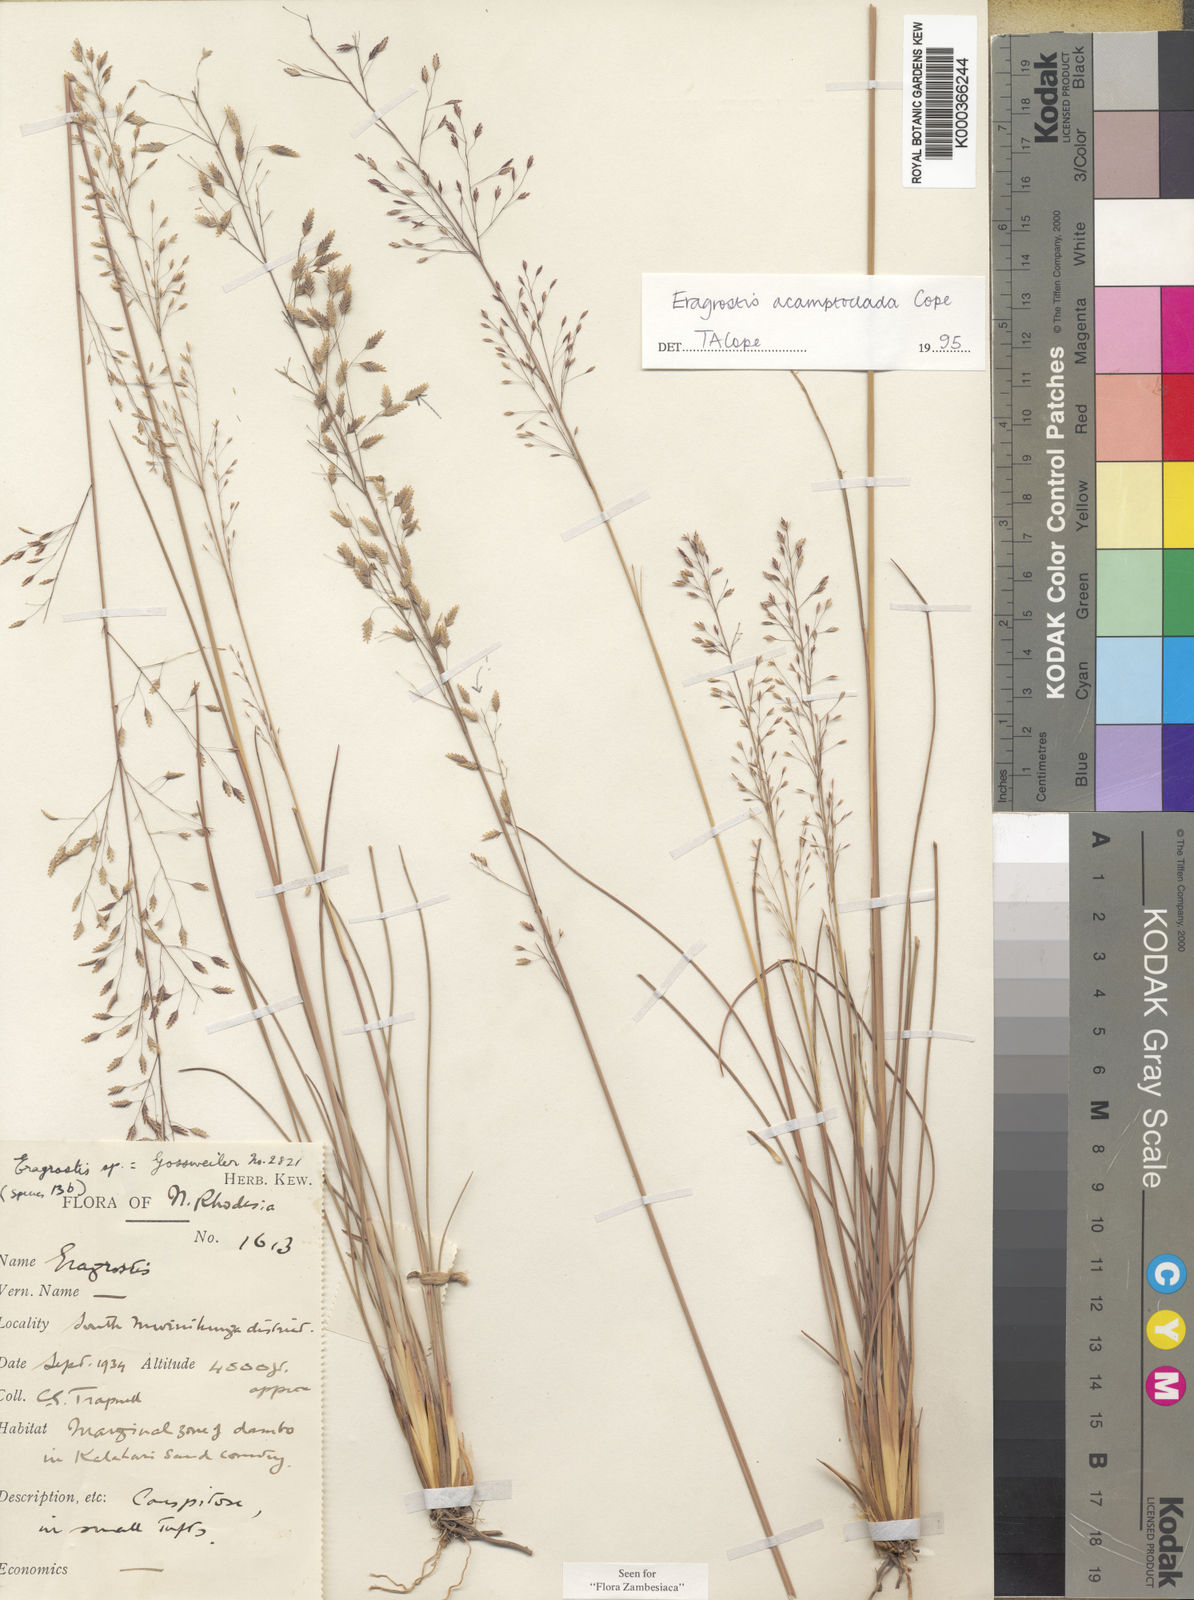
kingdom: Plantae
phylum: Tracheophyta
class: Liliopsida
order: Poales
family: Poaceae
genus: Eragrostis
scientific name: Eragrostis acamptoclada
